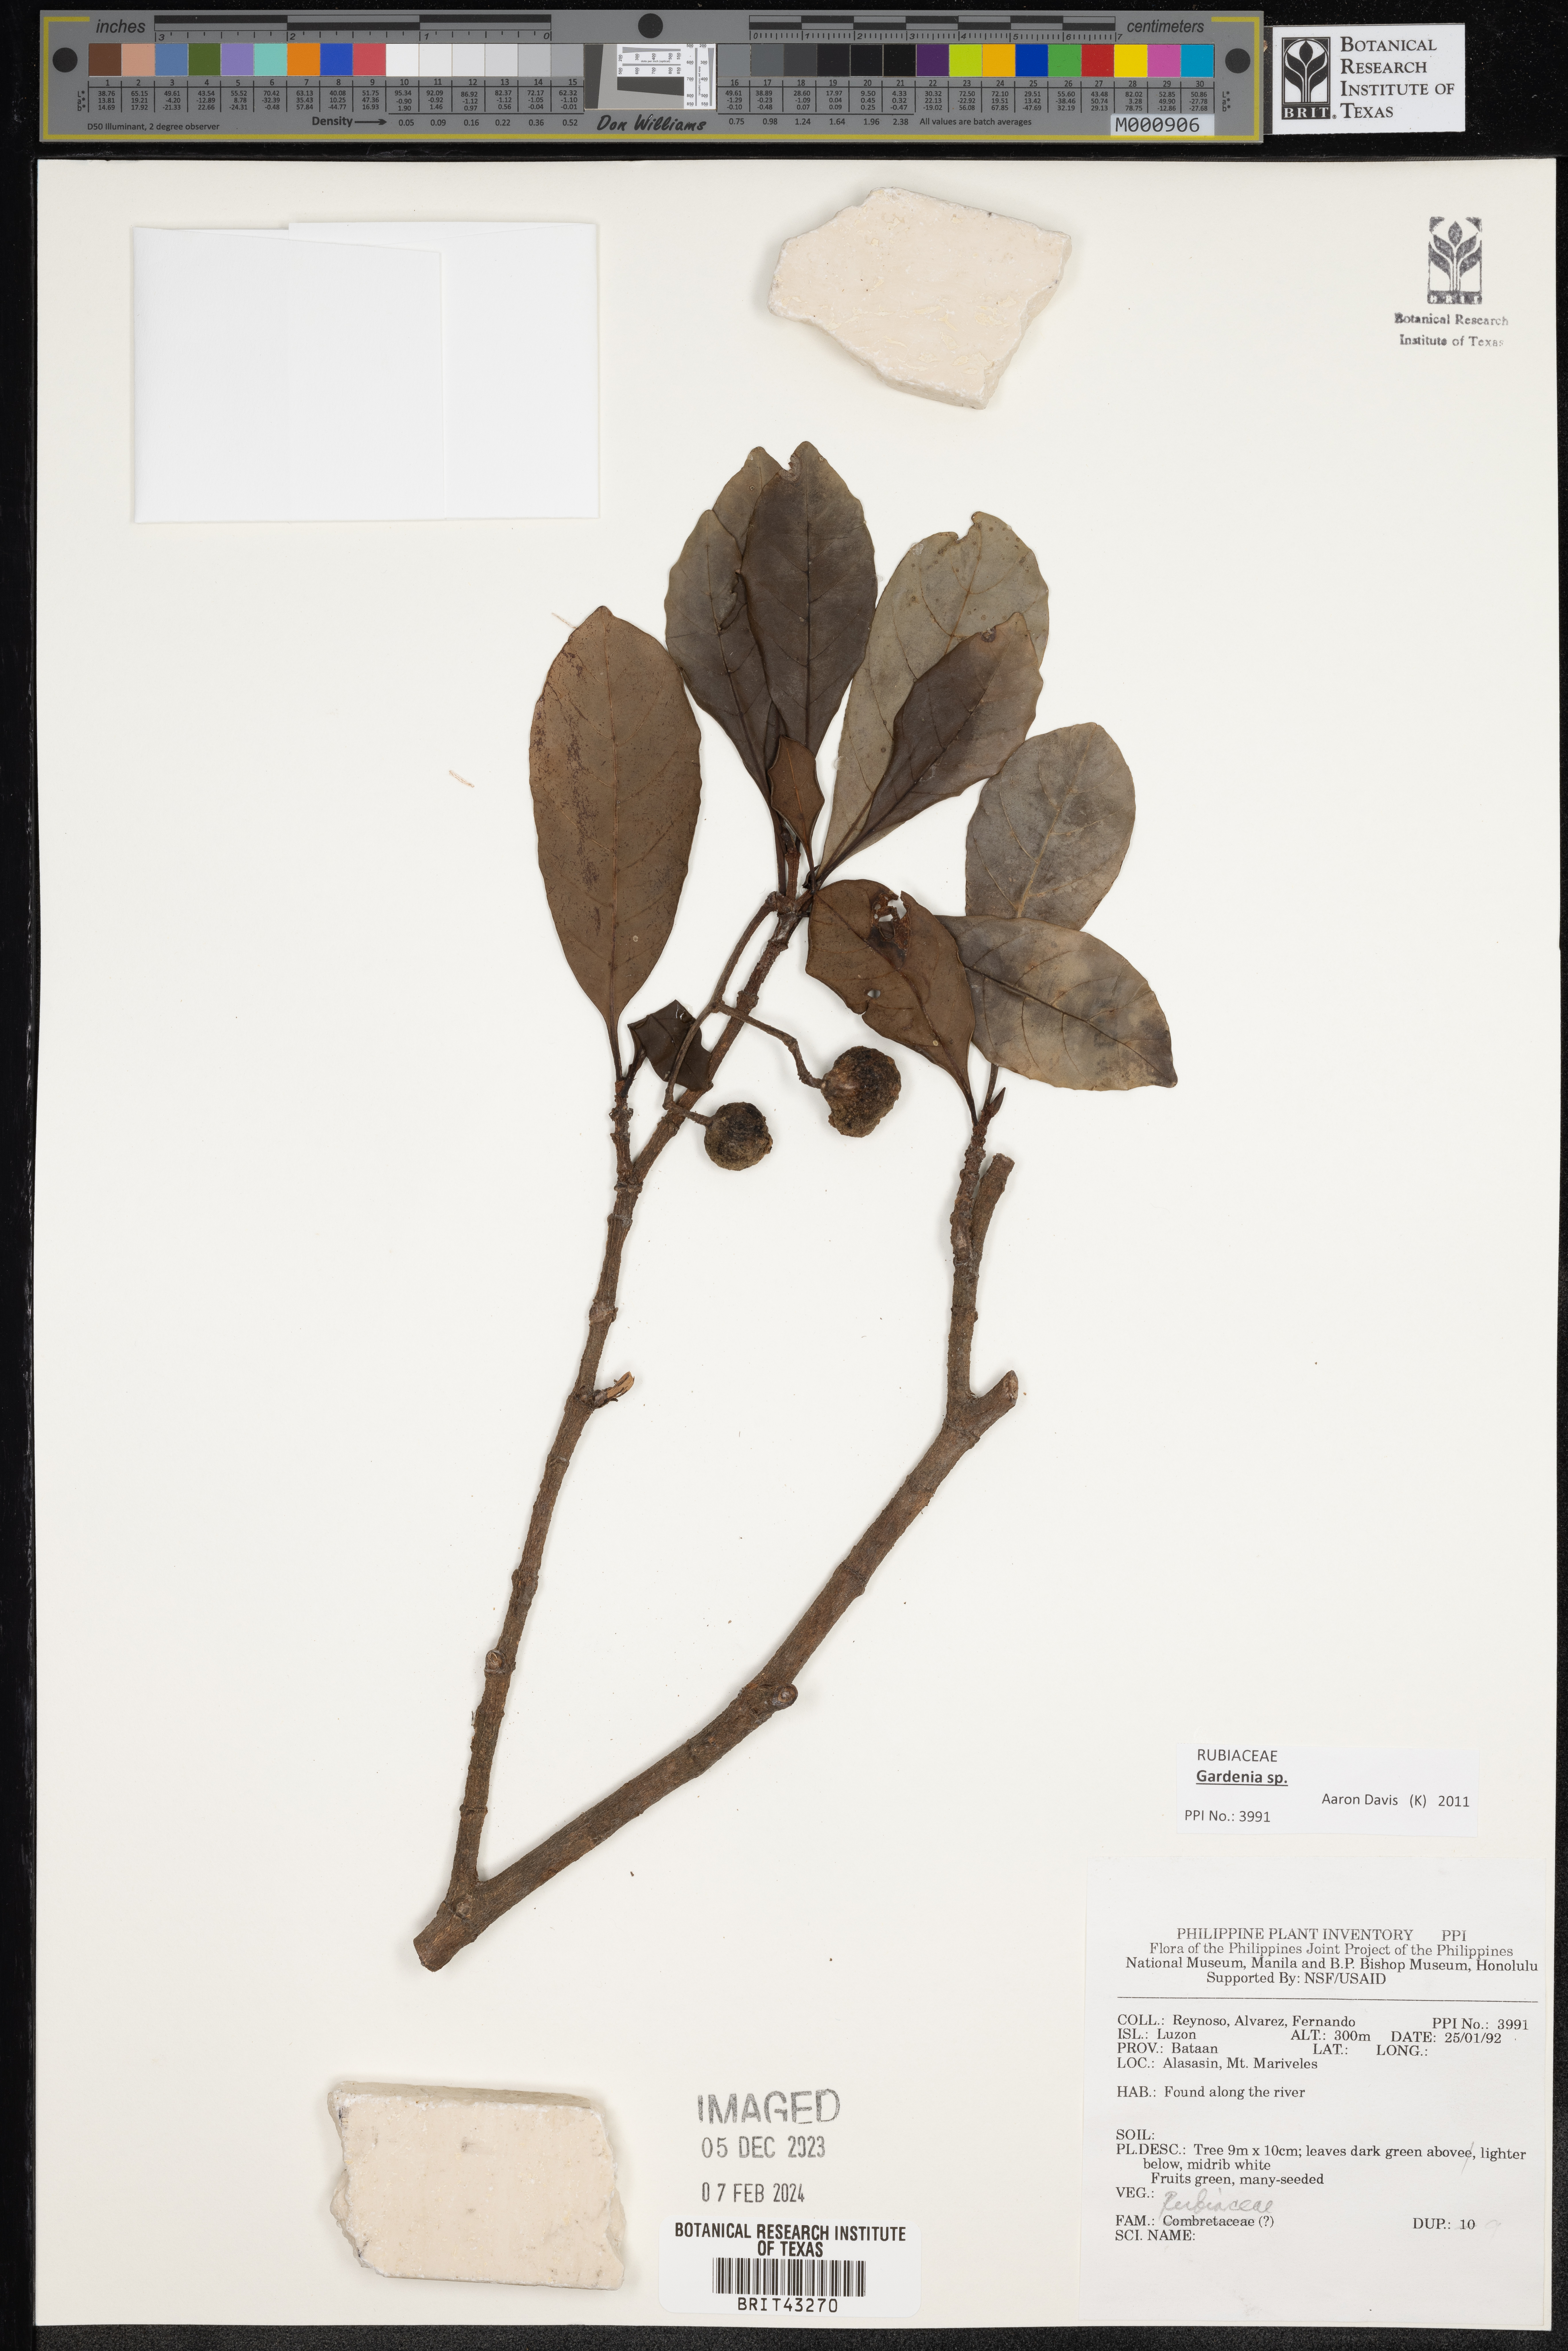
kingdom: Plantae
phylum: Tracheophyta
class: Magnoliopsida
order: Gentianales
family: Rubiaceae
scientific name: Rubiaceae
